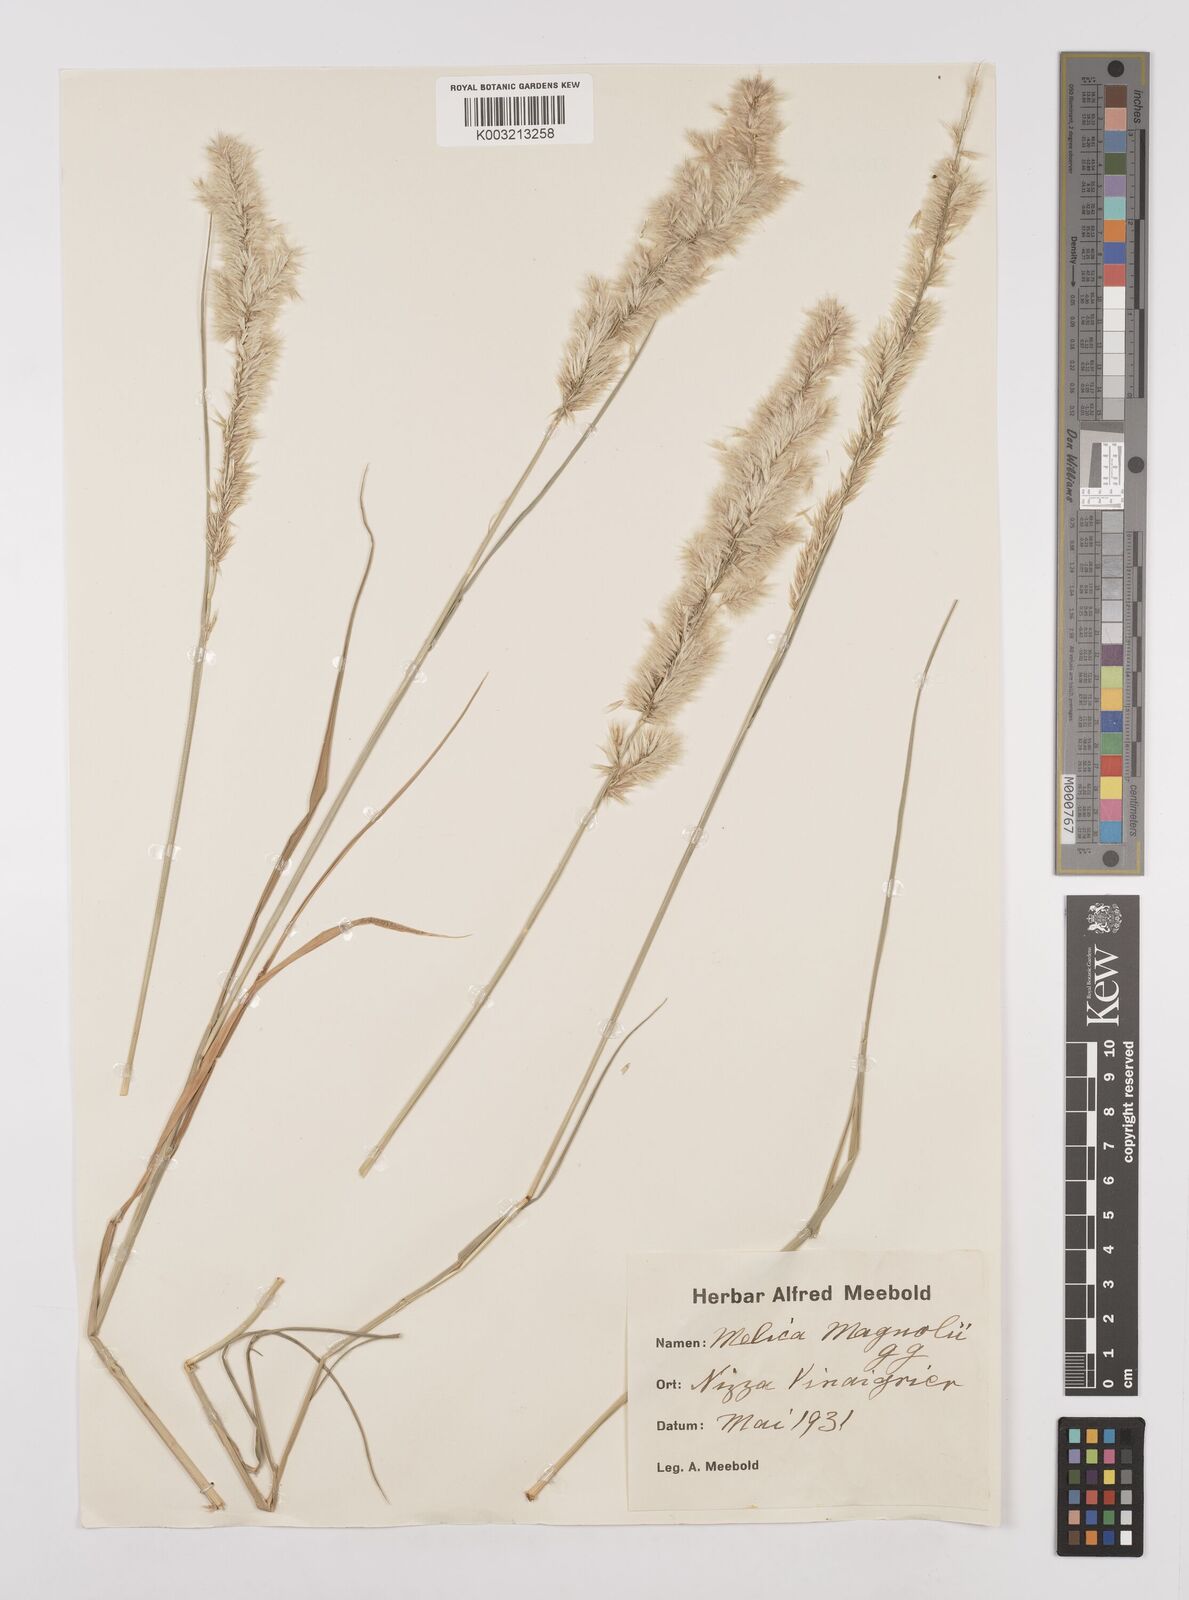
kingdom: Plantae
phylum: Tracheophyta
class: Liliopsida
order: Poales
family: Poaceae
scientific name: Poaceae
